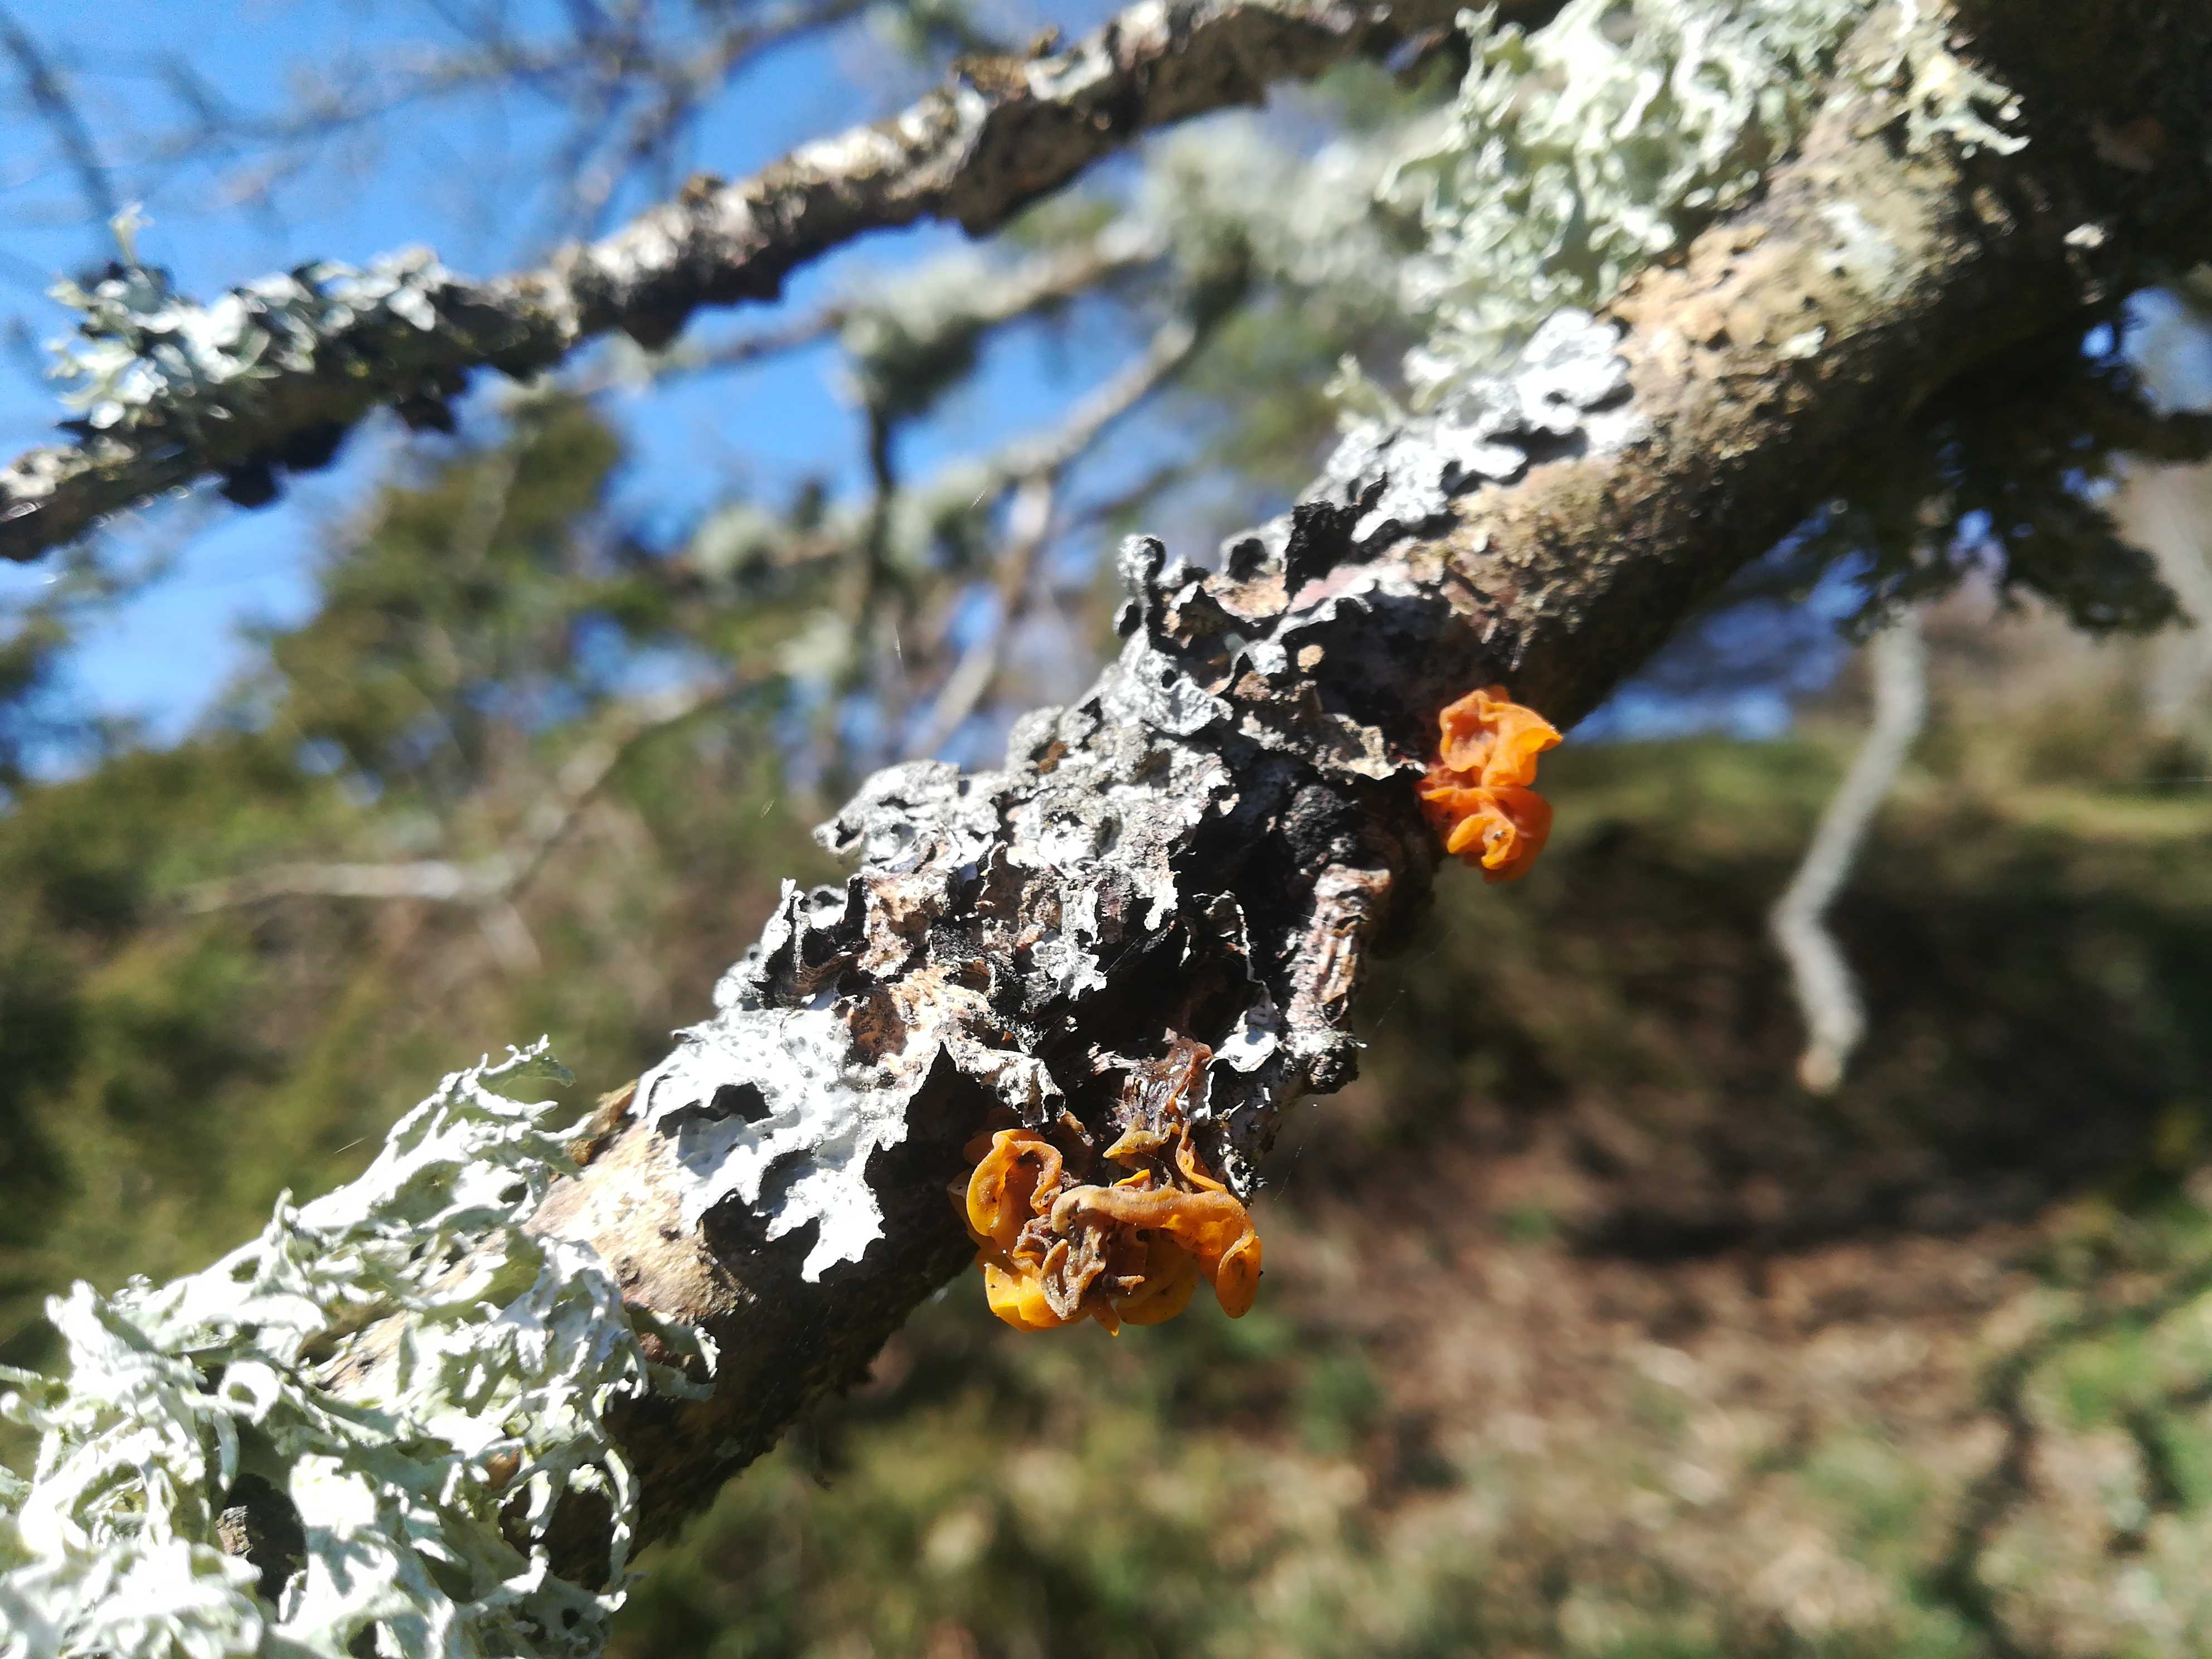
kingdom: Fungi
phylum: Basidiomycota
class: Tremellomycetes
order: Tremellales
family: Tremellaceae
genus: Tremella
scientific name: Tremella mesenterica
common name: gul bævresvamp
